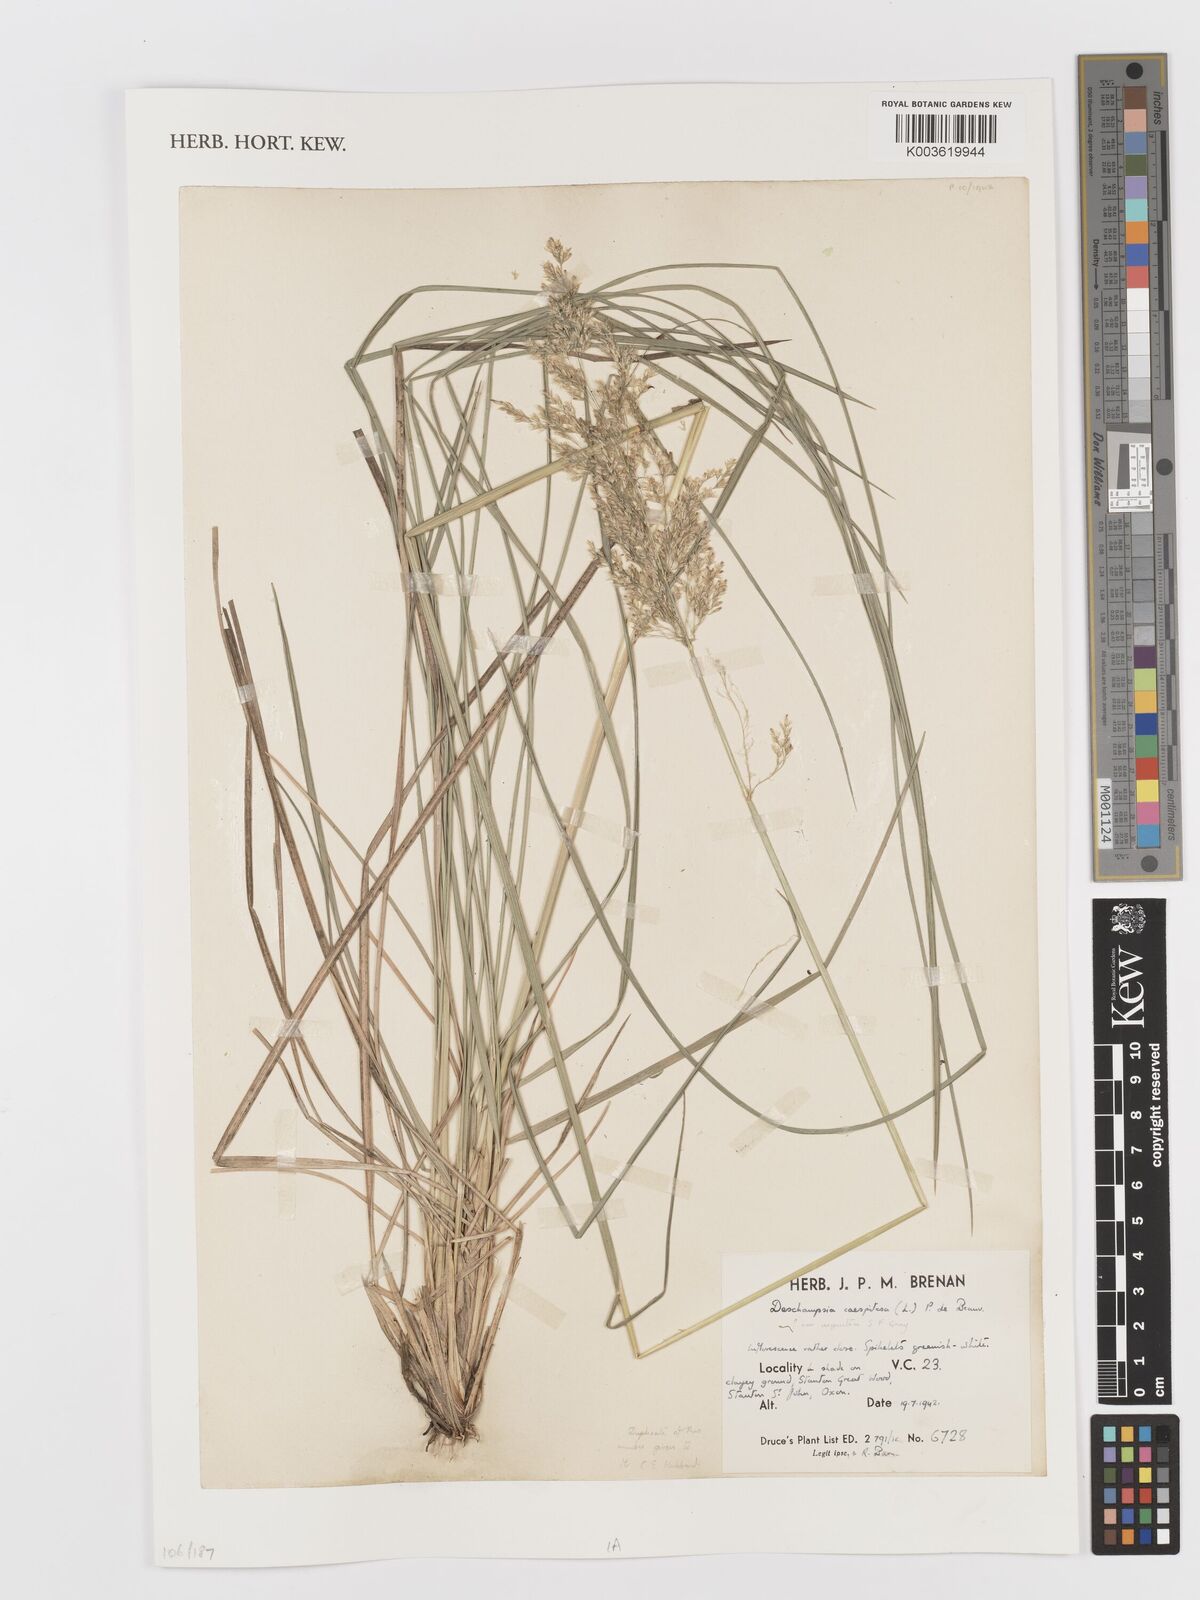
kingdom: Plantae
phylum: Tracheophyta
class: Liliopsida
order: Poales
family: Poaceae
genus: Deschampsia
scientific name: Deschampsia
